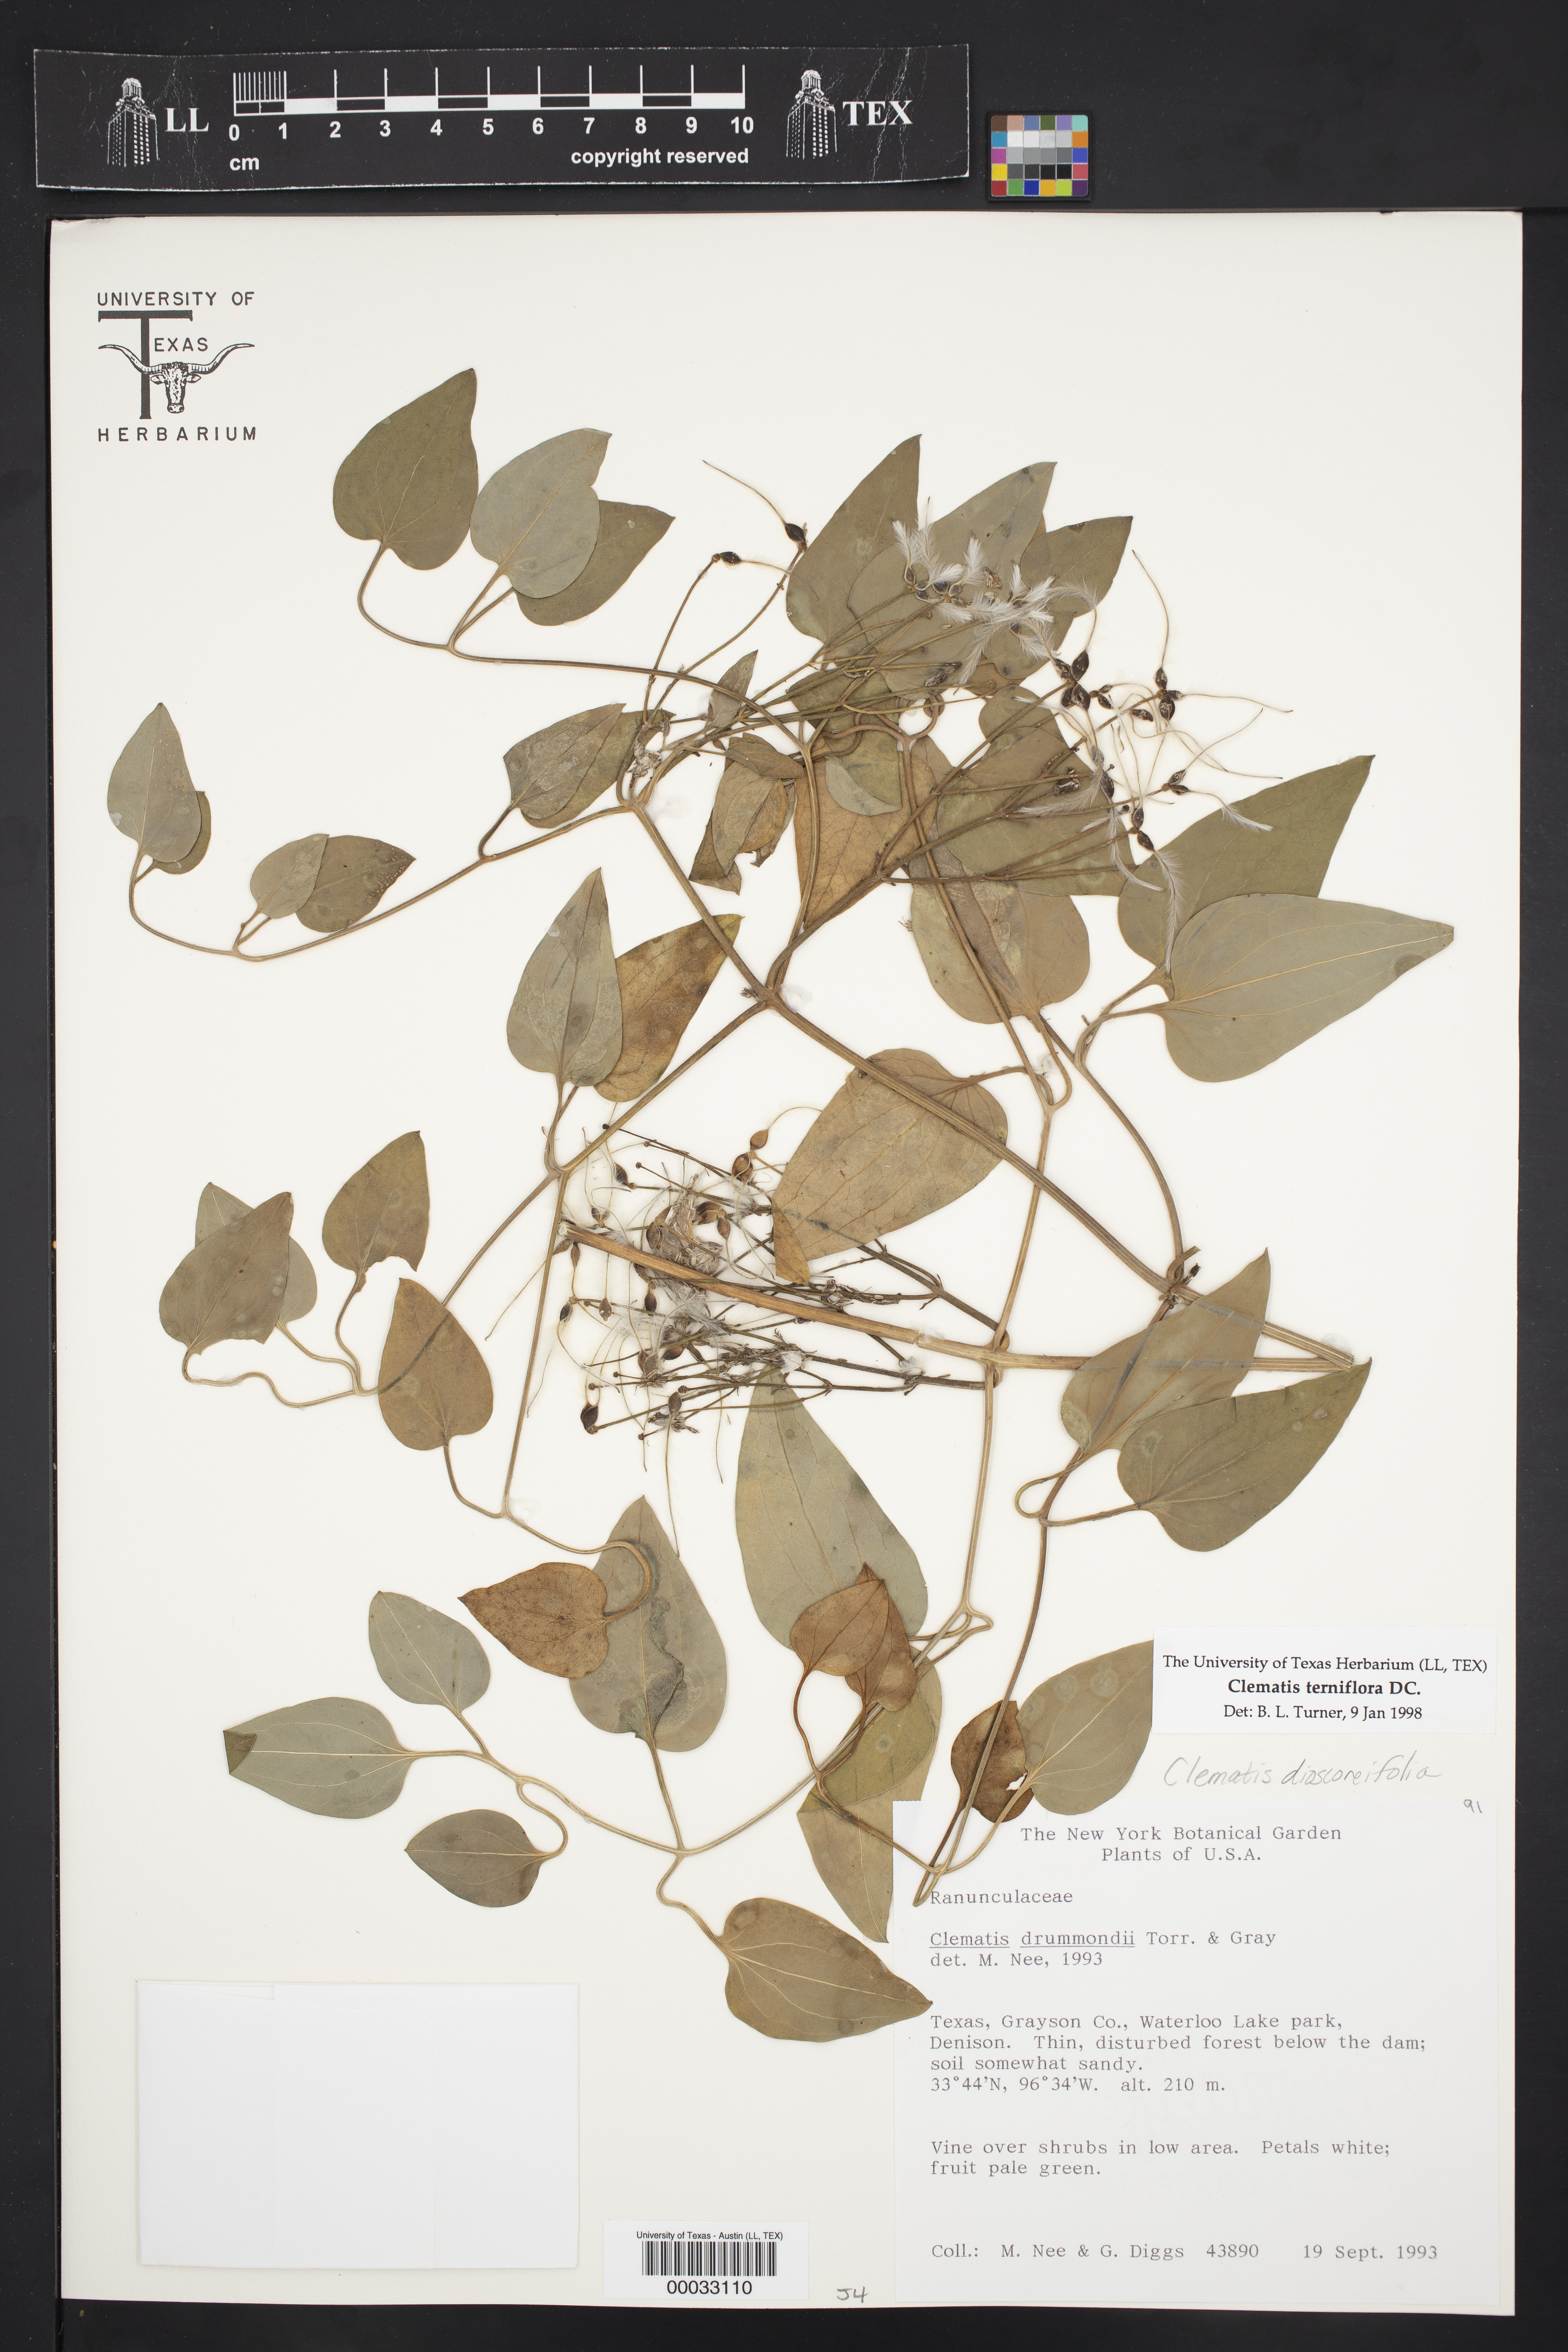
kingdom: Plantae
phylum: Tracheophyta
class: Magnoliopsida
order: Ranunculales
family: Ranunculaceae
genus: Clematis
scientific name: Clematis terniflora
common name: Sweet autumn clematis
